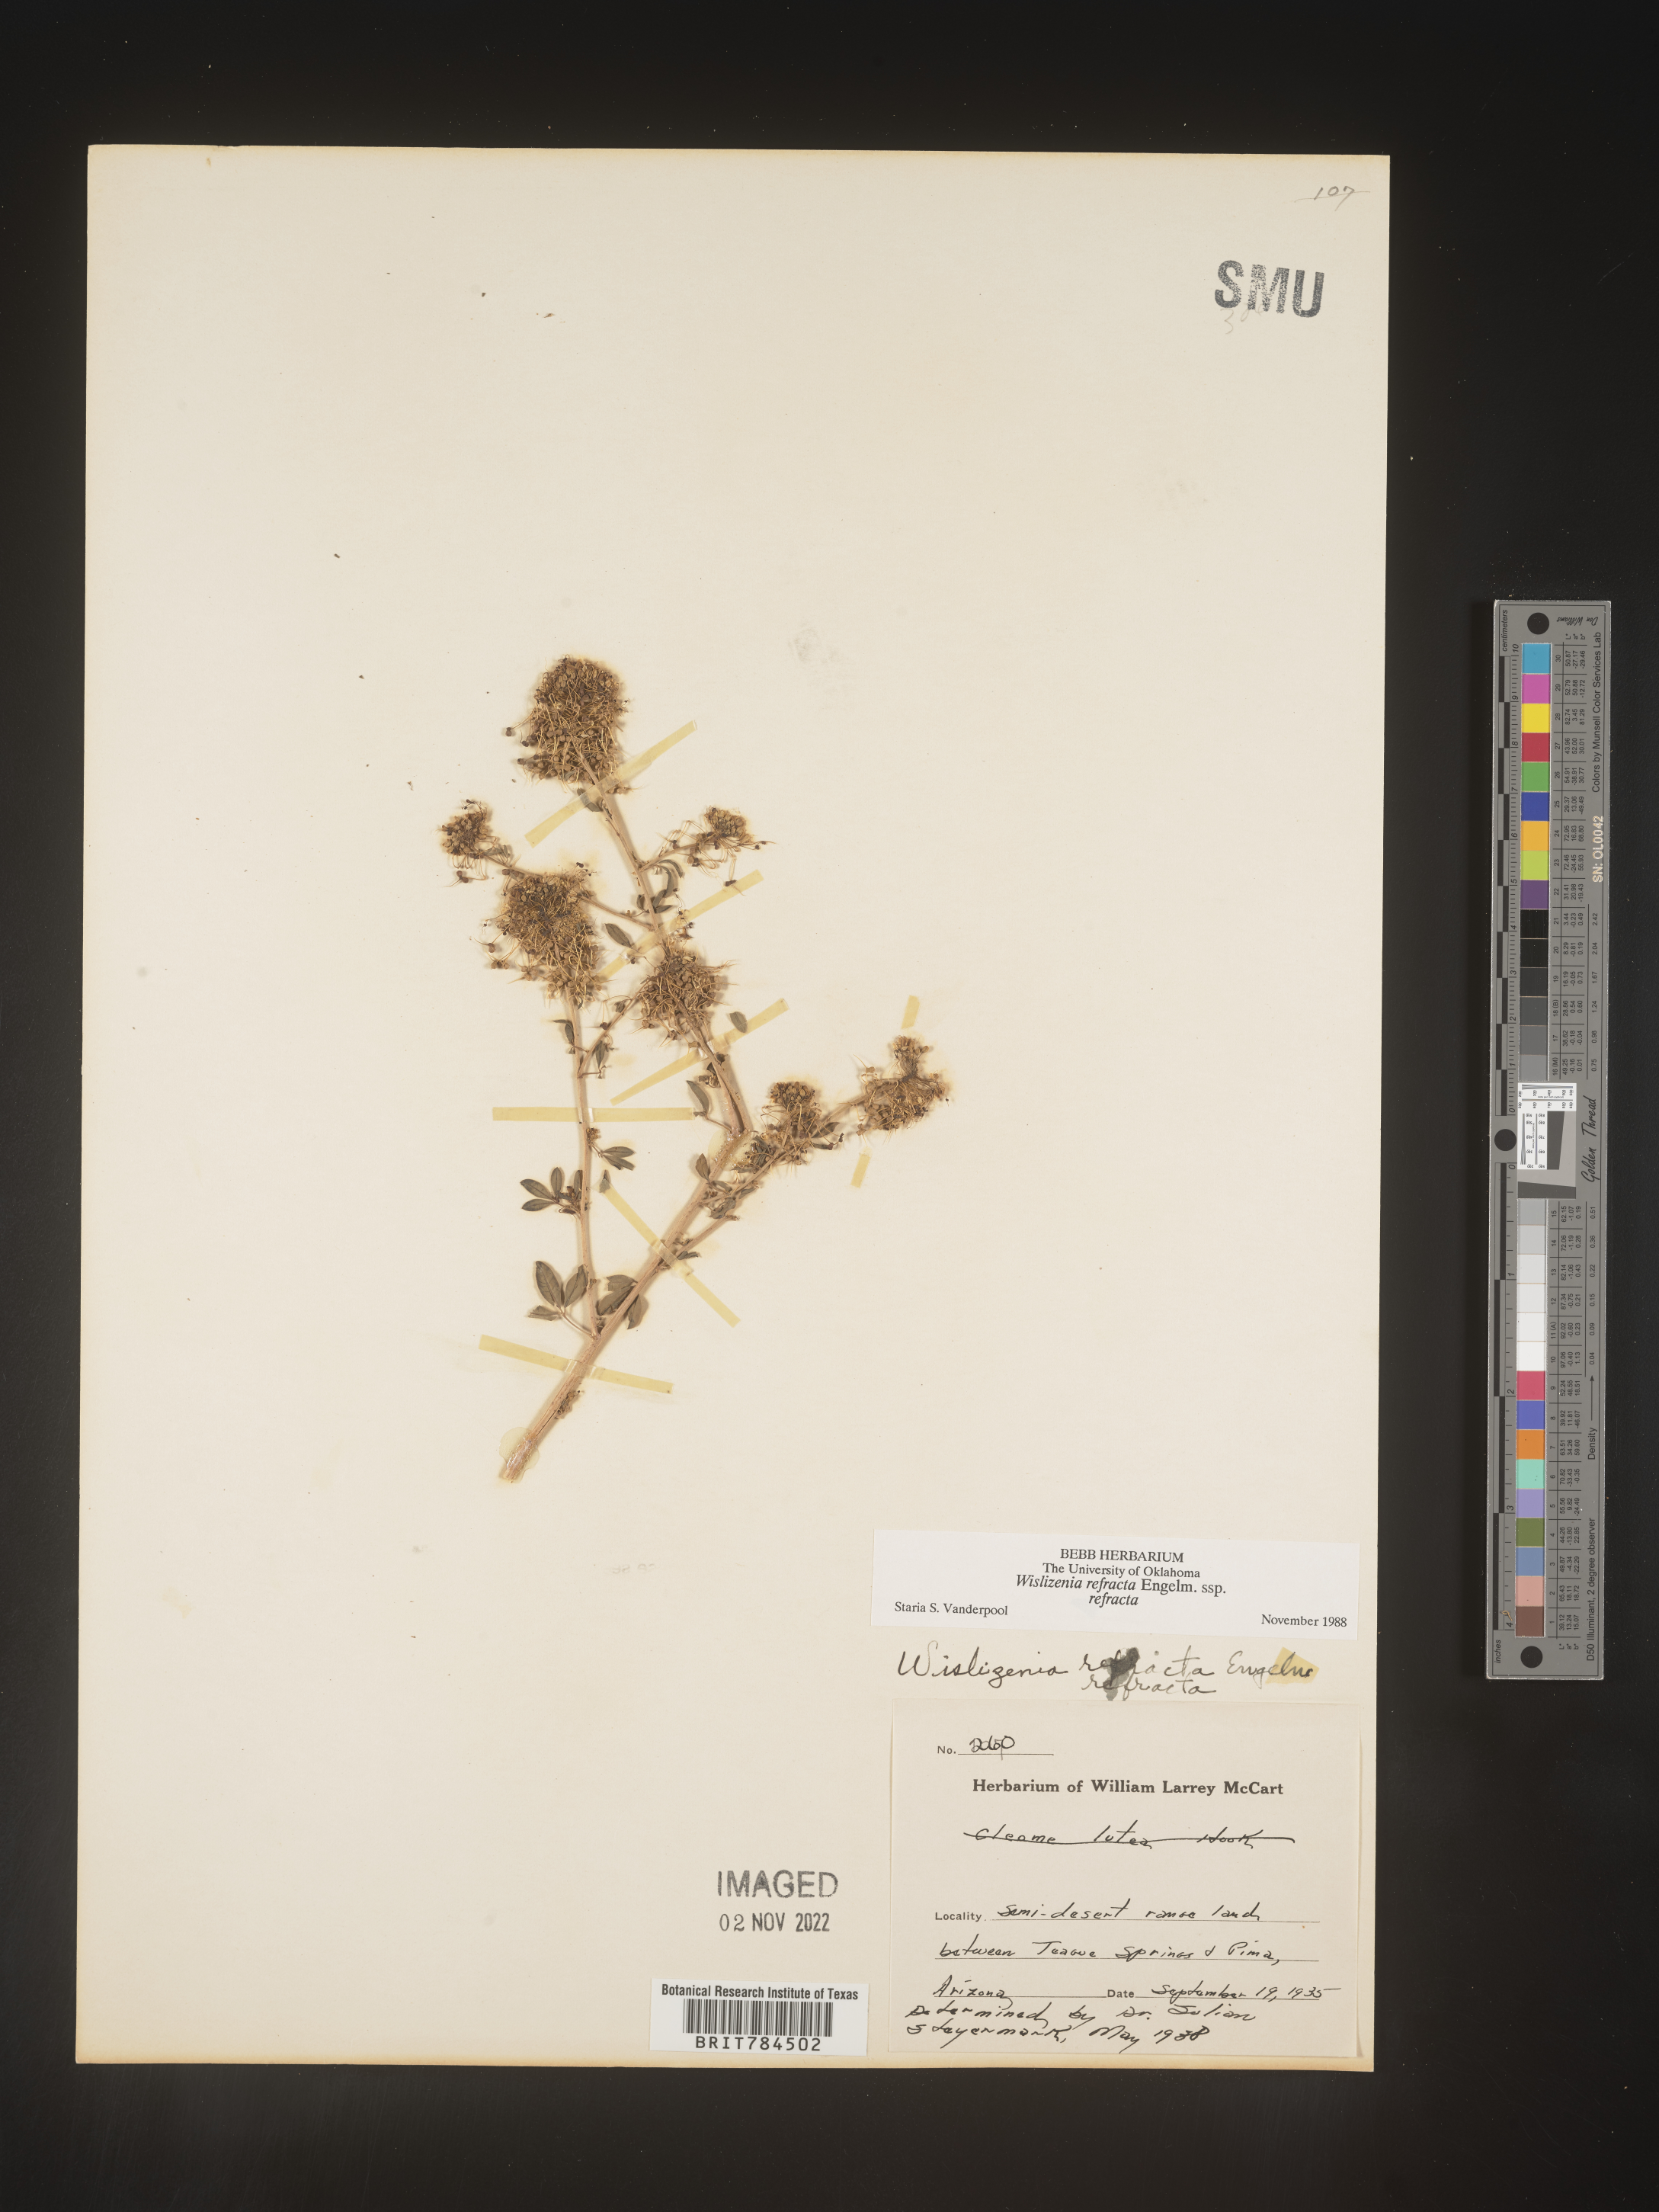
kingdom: Plantae
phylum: Tracheophyta
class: Magnoliopsida
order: Brassicales
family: Cleomaceae
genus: Cleomella
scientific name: Cleomella refracta
